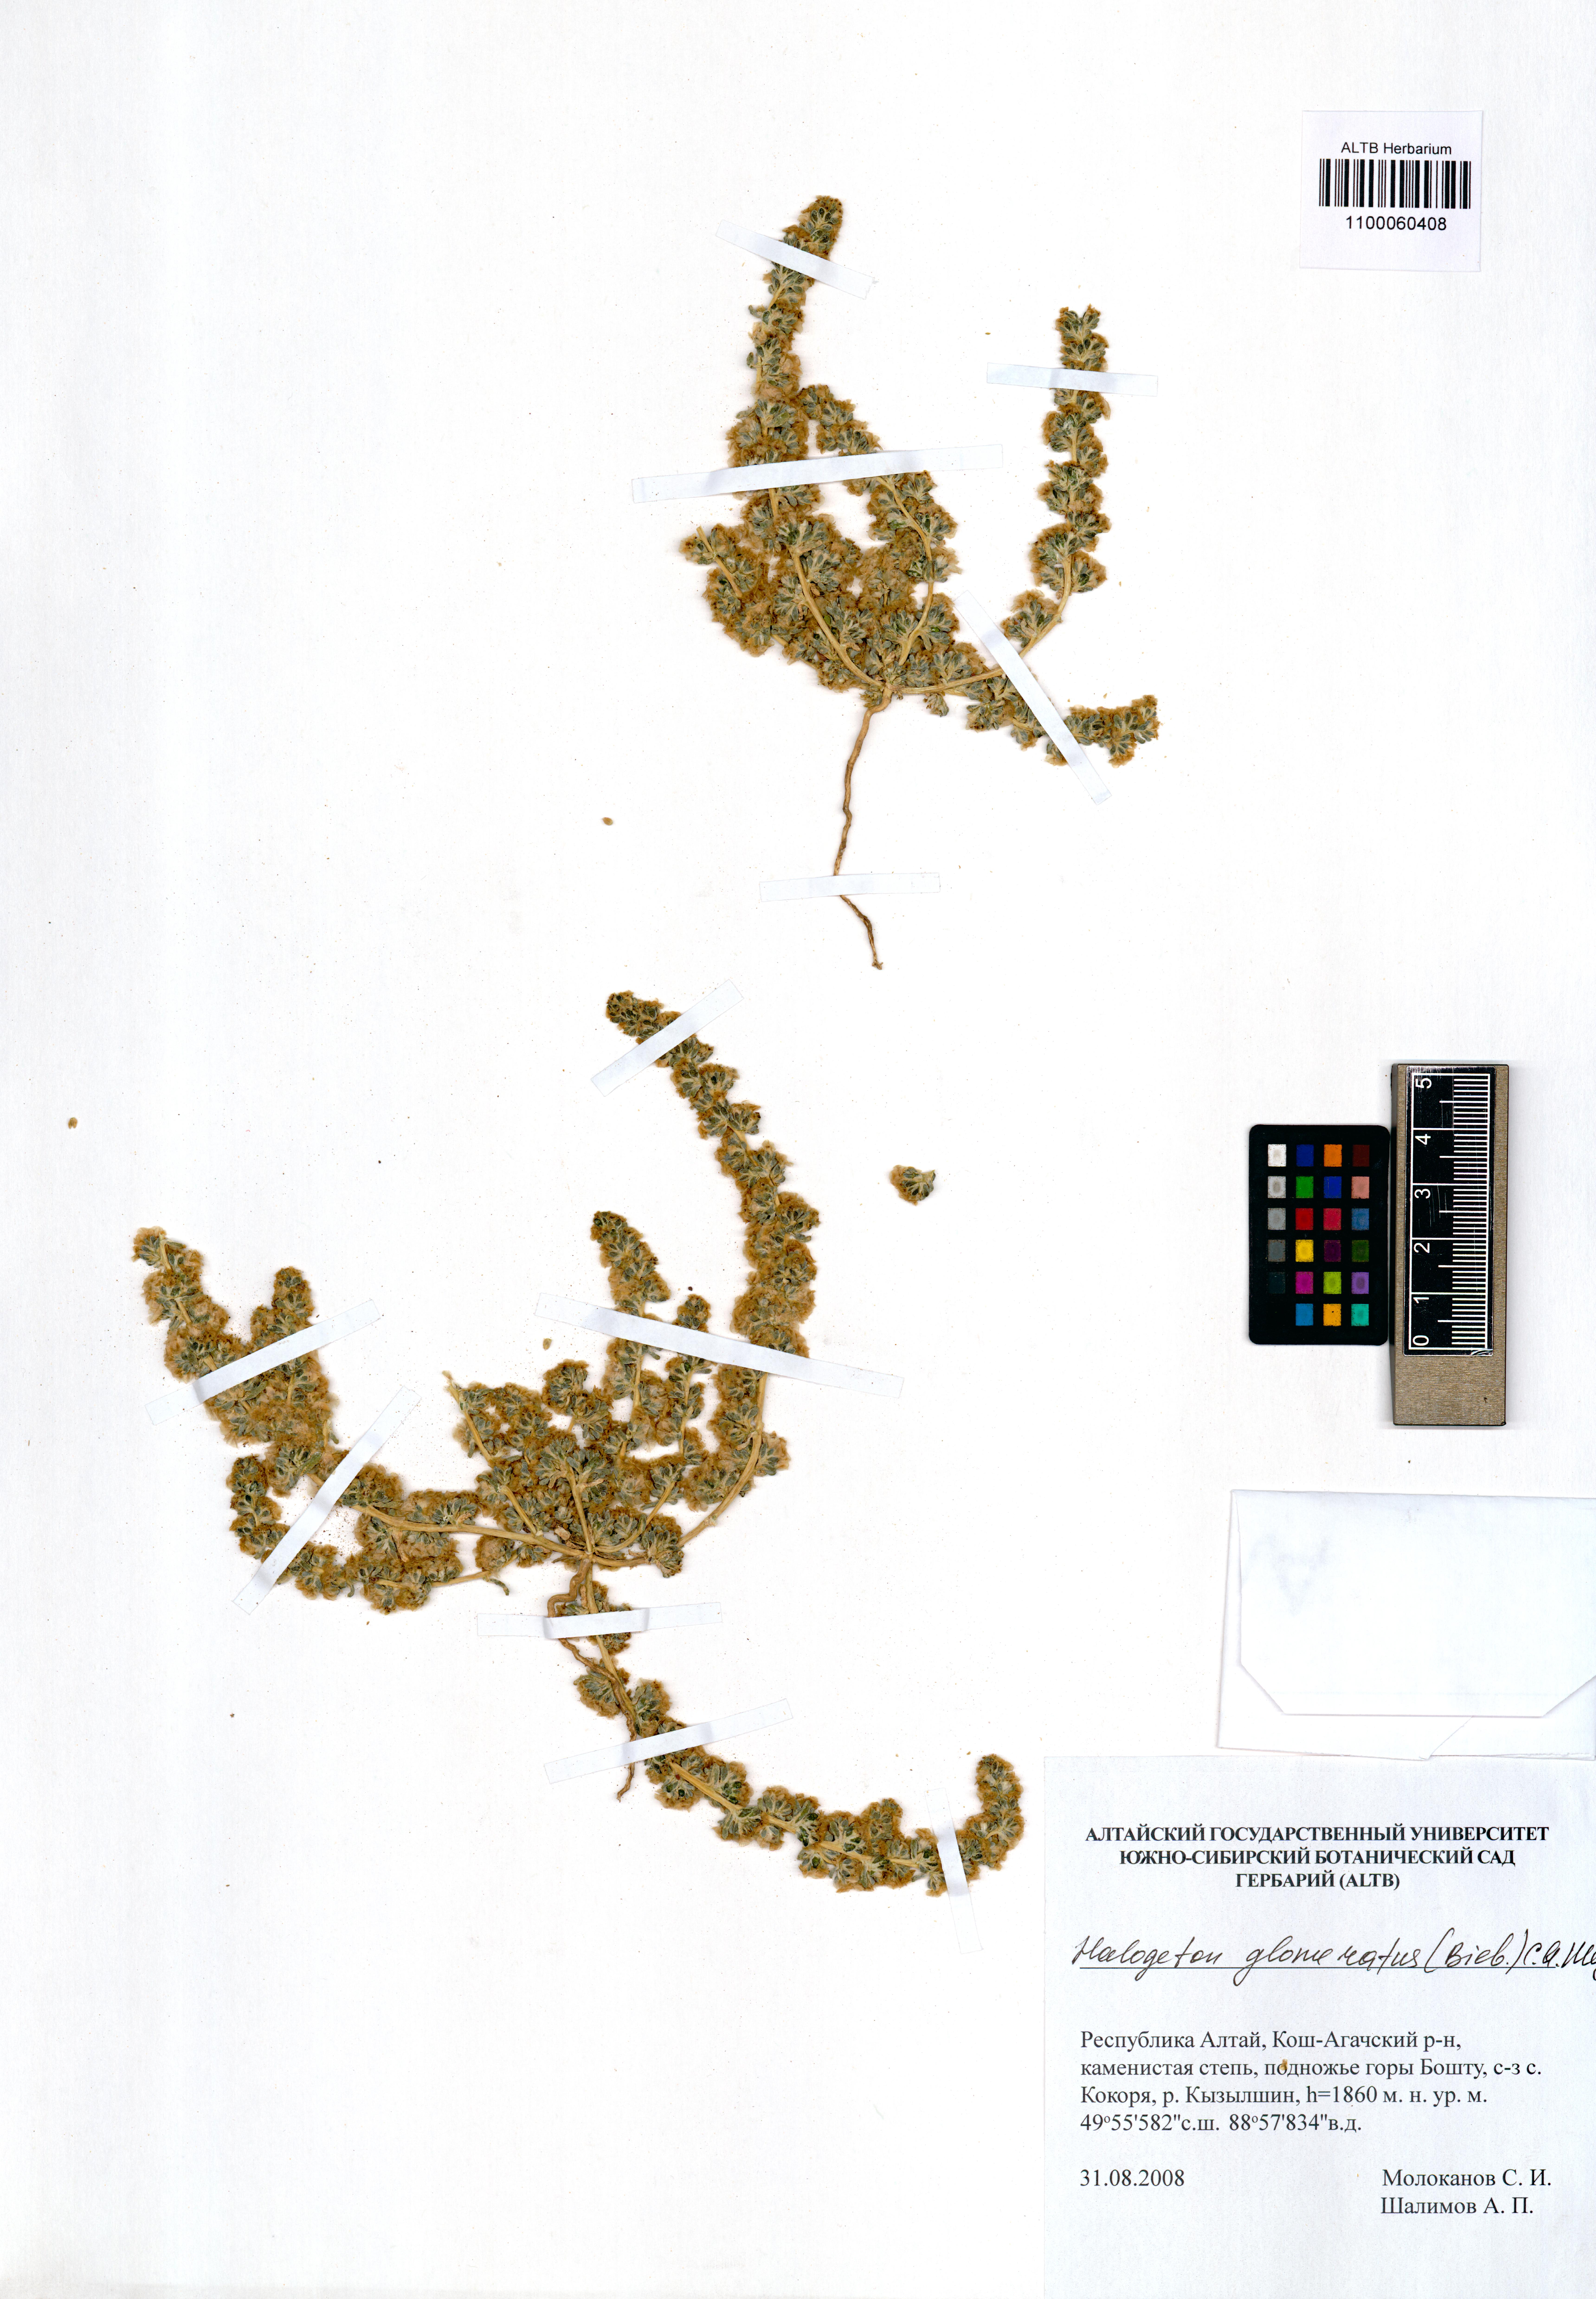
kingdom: Plantae
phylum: Tracheophyta
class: Magnoliopsida
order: Caryophyllales
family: Amaranthaceae
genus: Halogeton
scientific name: Halogeton glomeratus
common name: Saltlover
